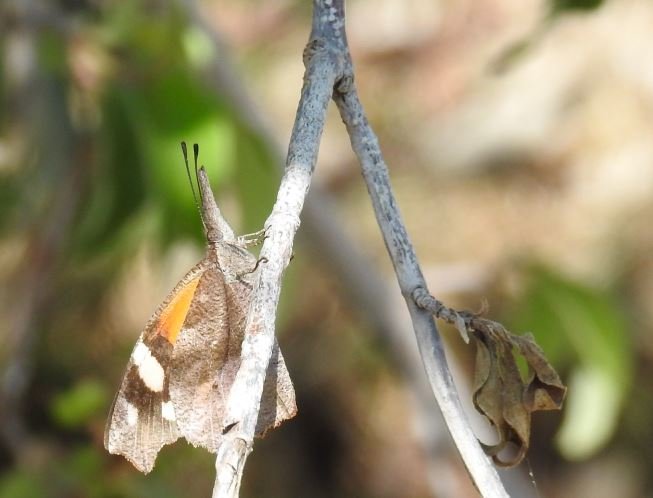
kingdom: Animalia
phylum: Arthropoda
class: Insecta
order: Lepidoptera
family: Nymphalidae
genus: Libytheana
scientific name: Libytheana carinenta
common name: American Snout
